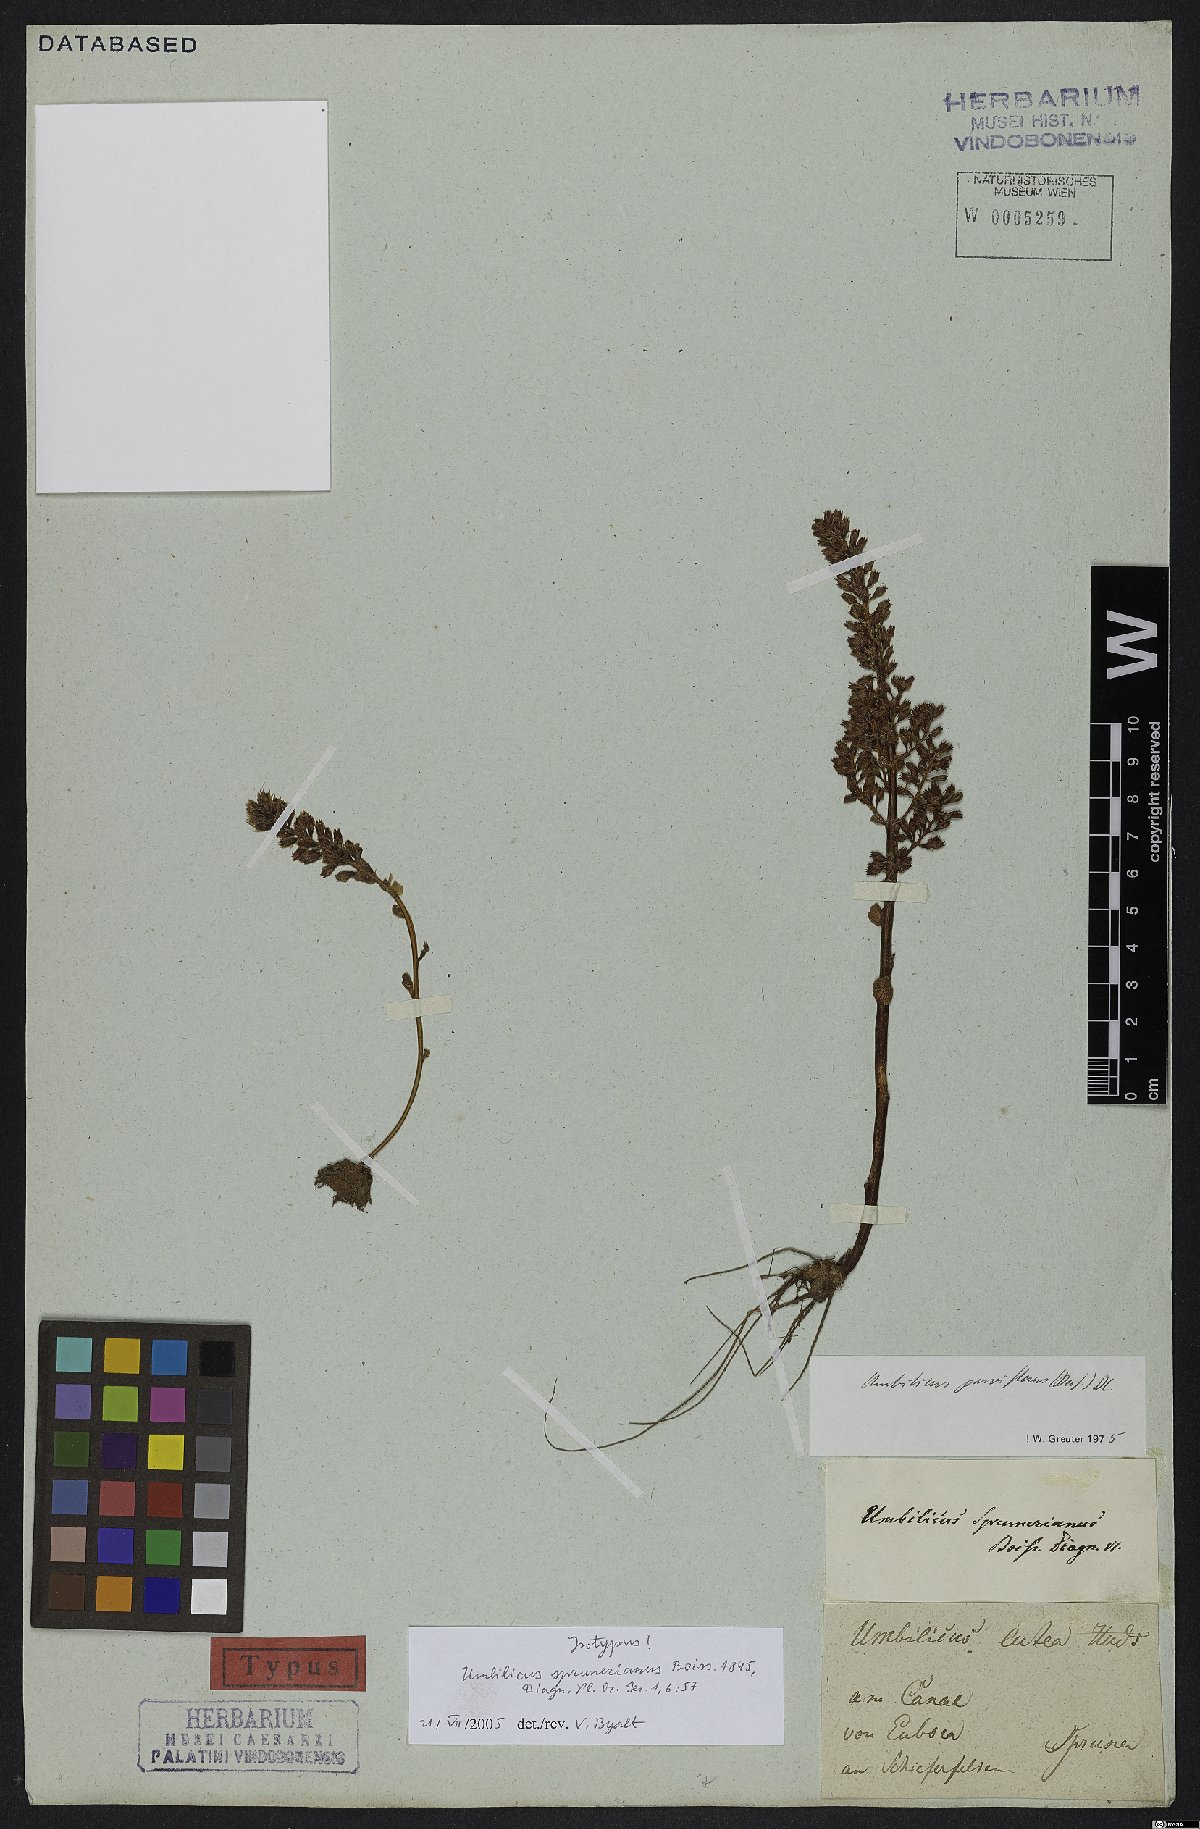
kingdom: Plantae
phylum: Tracheophyta
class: Magnoliopsida
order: Saxifragales
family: Crassulaceae
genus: Umbilicus
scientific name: Umbilicus parviflorus
